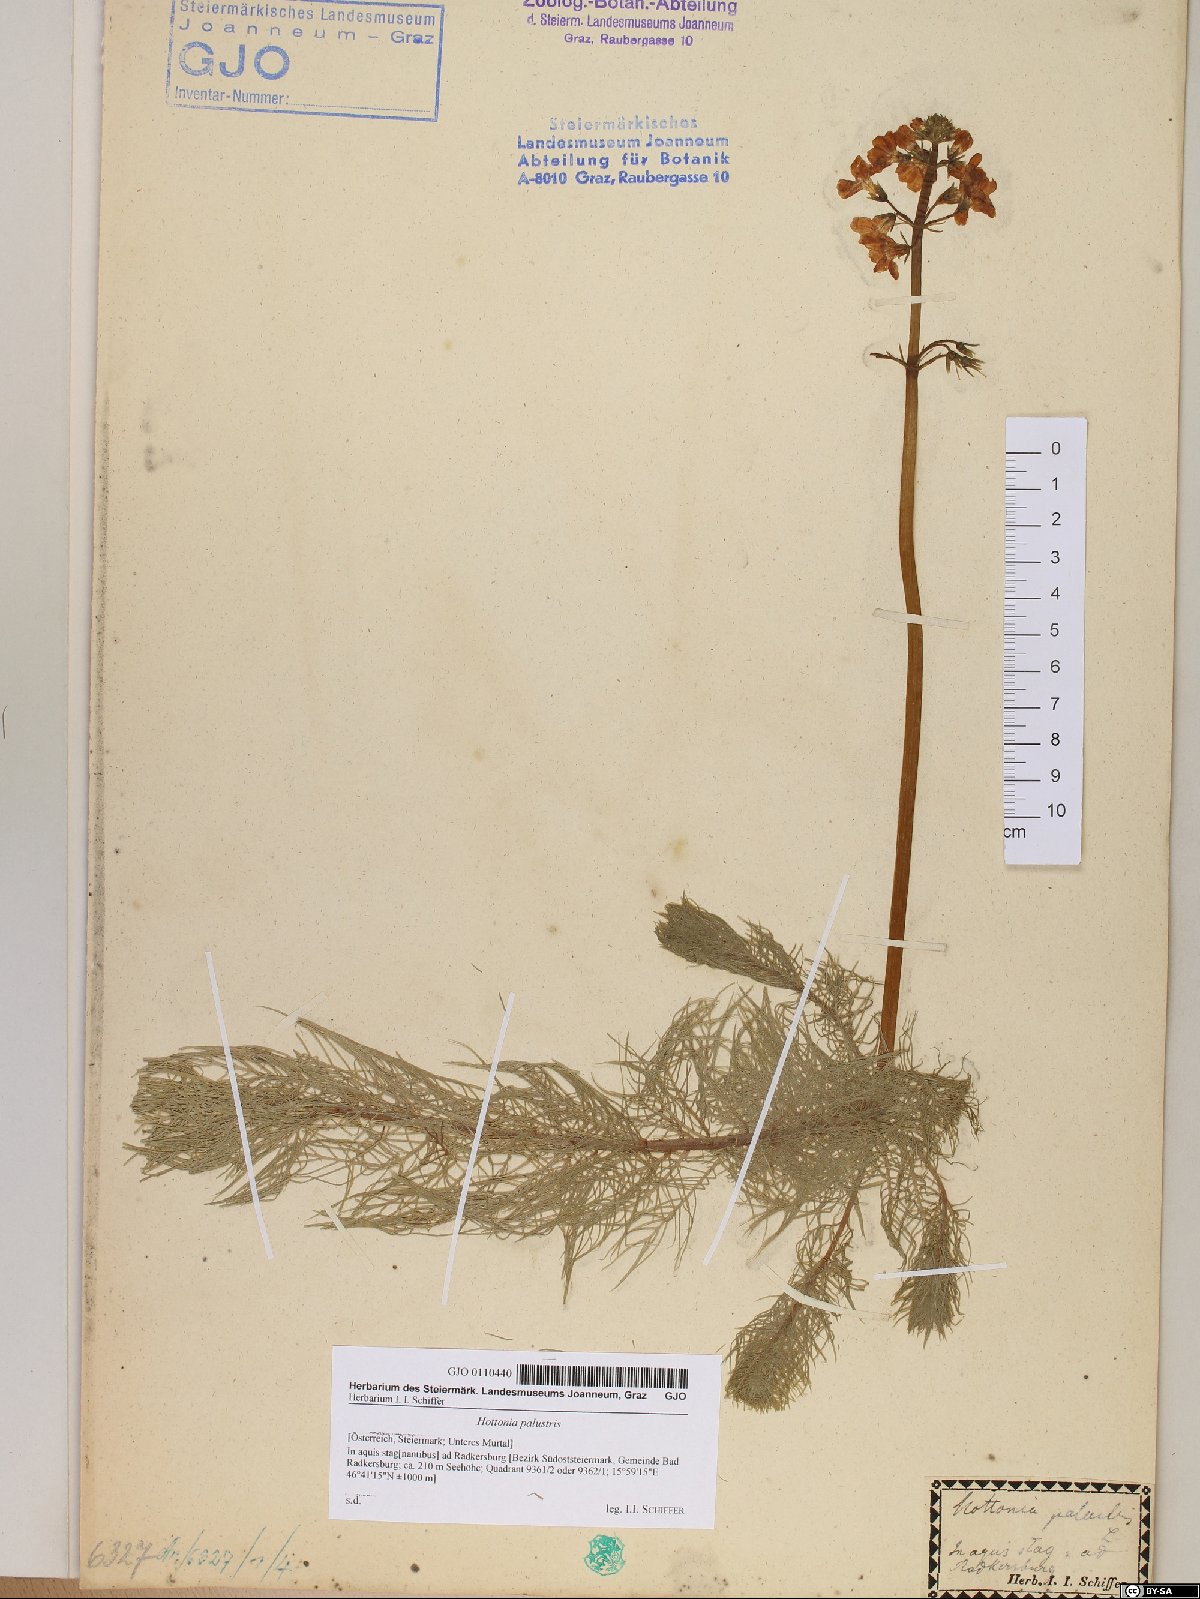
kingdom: Plantae
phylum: Tracheophyta
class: Magnoliopsida
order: Ericales
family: Primulaceae
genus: Hottonia
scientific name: Hottonia palustris
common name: Water-violet
